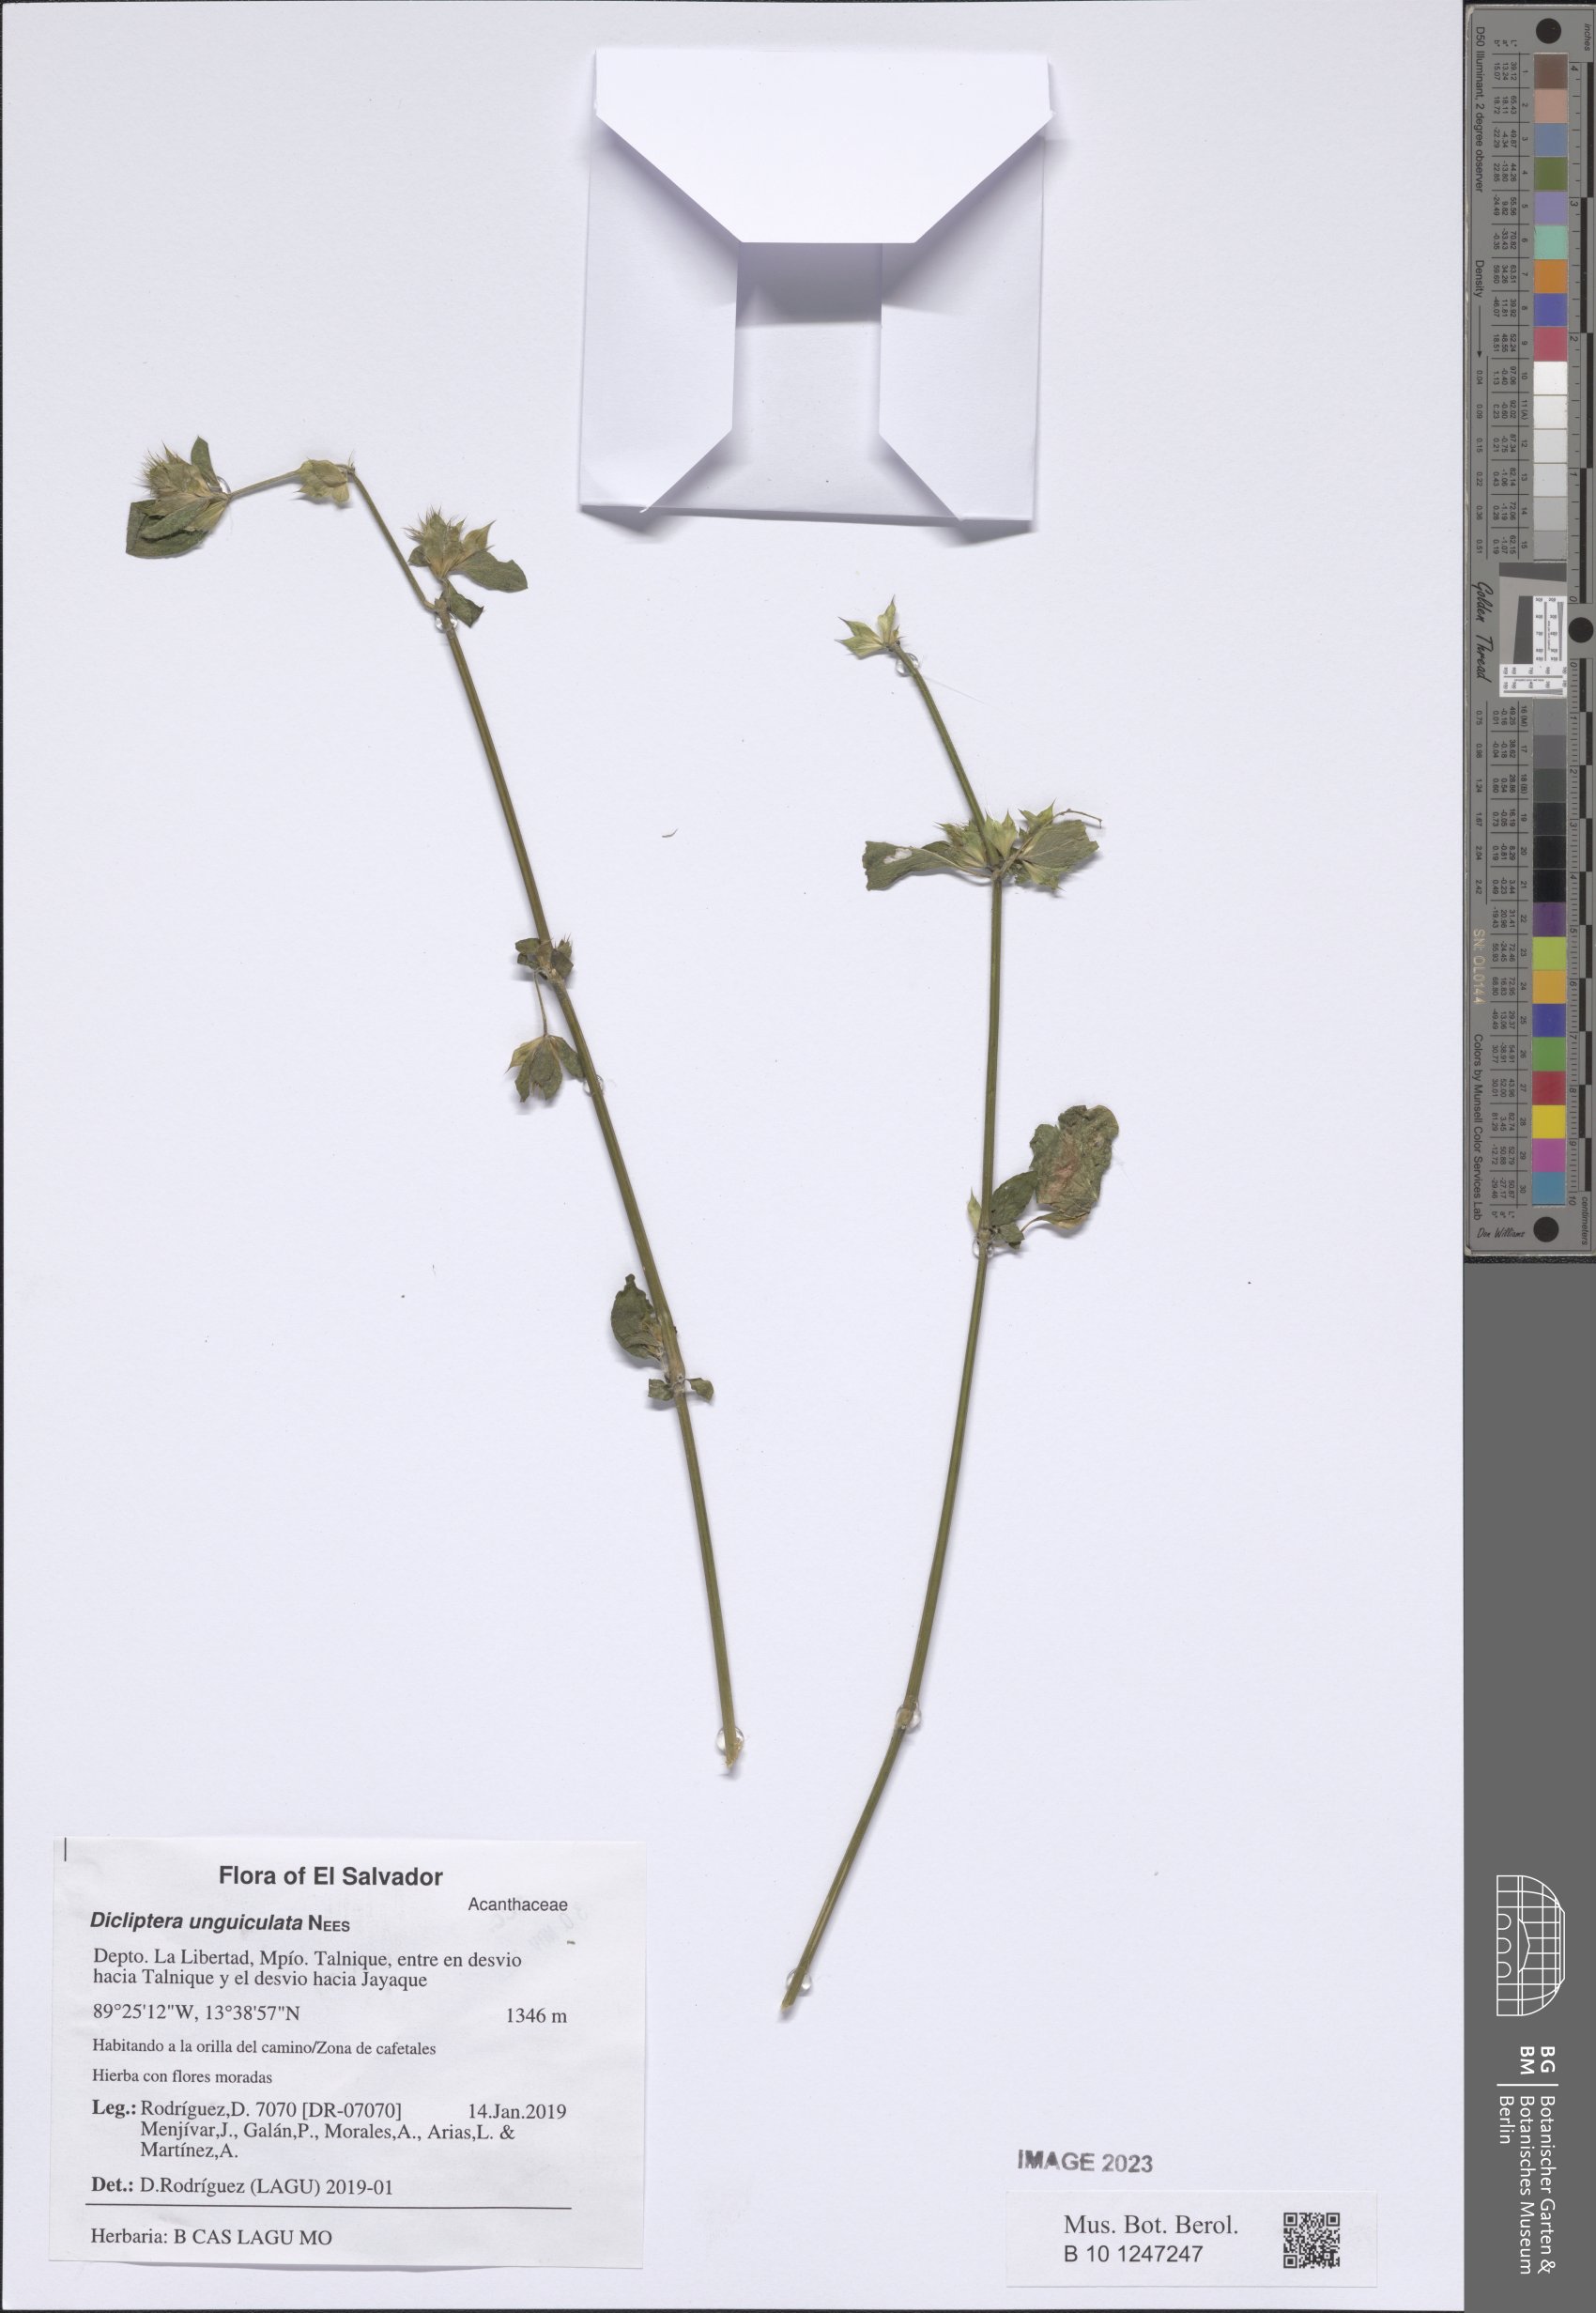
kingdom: Plantae
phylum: Tracheophyta
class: Magnoliopsida
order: Lamiales
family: Acanthaceae
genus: Dicliptera
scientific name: Dicliptera unguiculata
